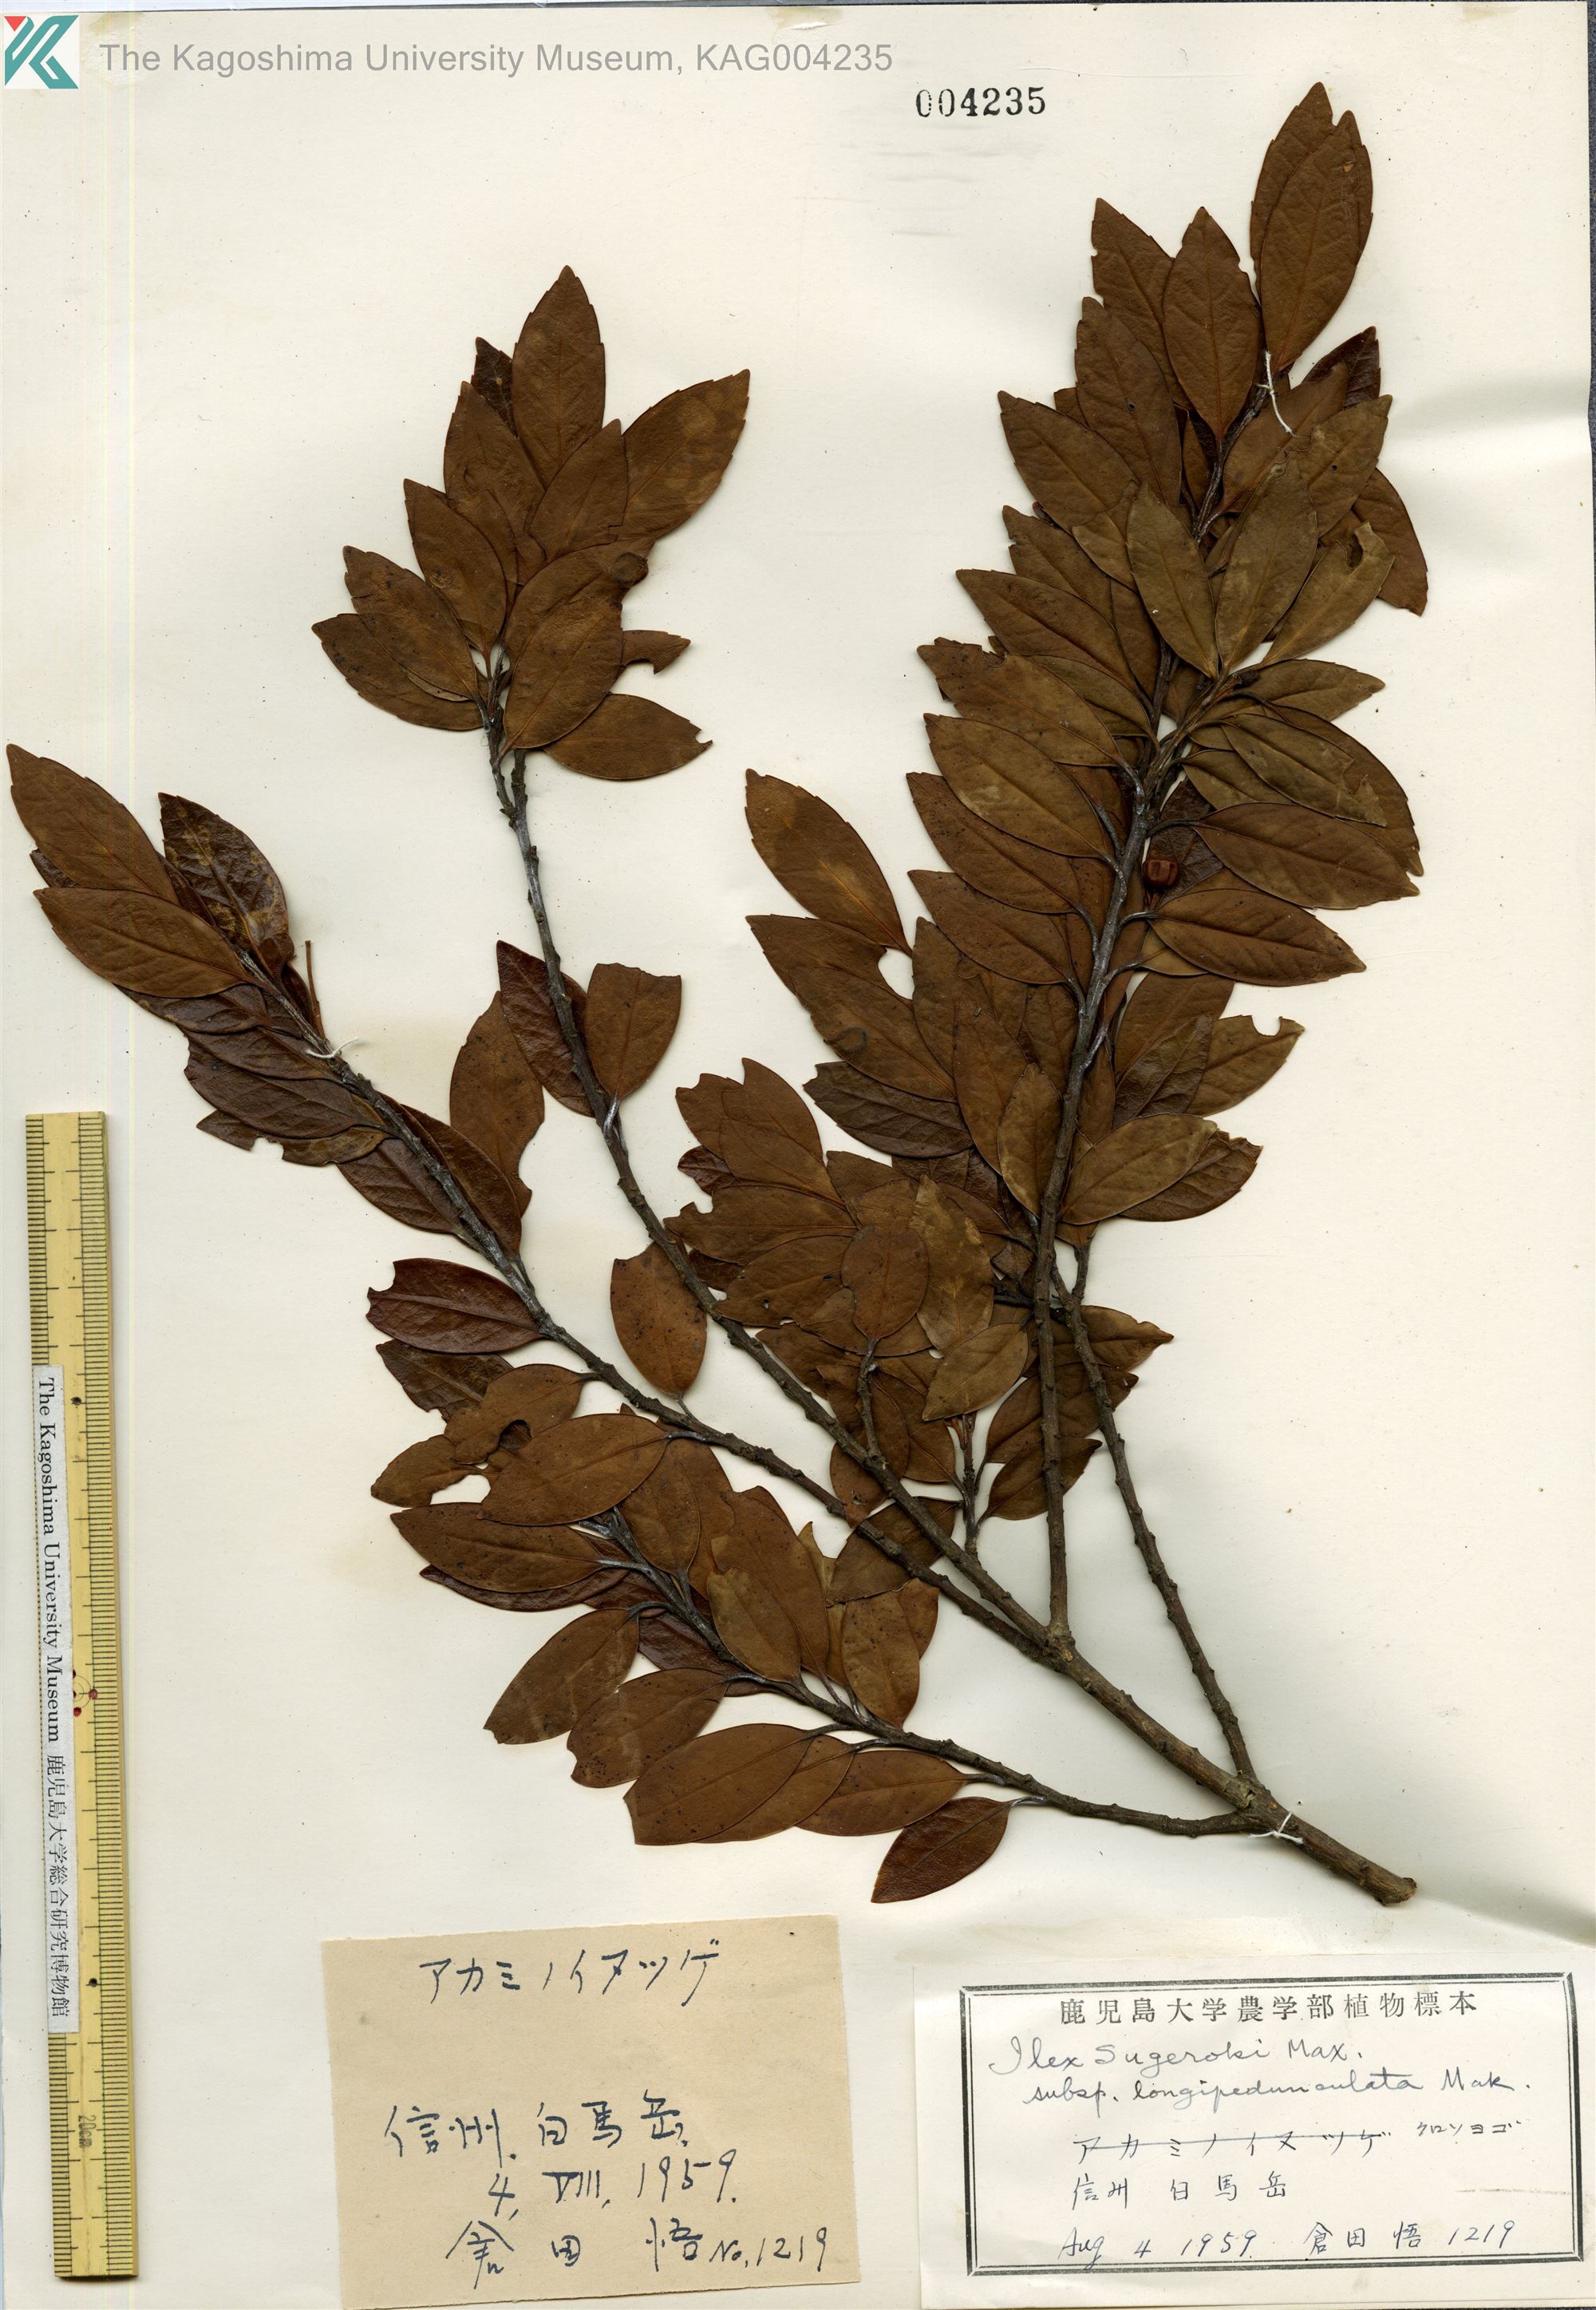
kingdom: Plantae
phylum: Tracheophyta
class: Magnoliopsida
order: Aquifoliales
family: Aquifoliaceae
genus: Ilex
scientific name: Ilex sugerokii
